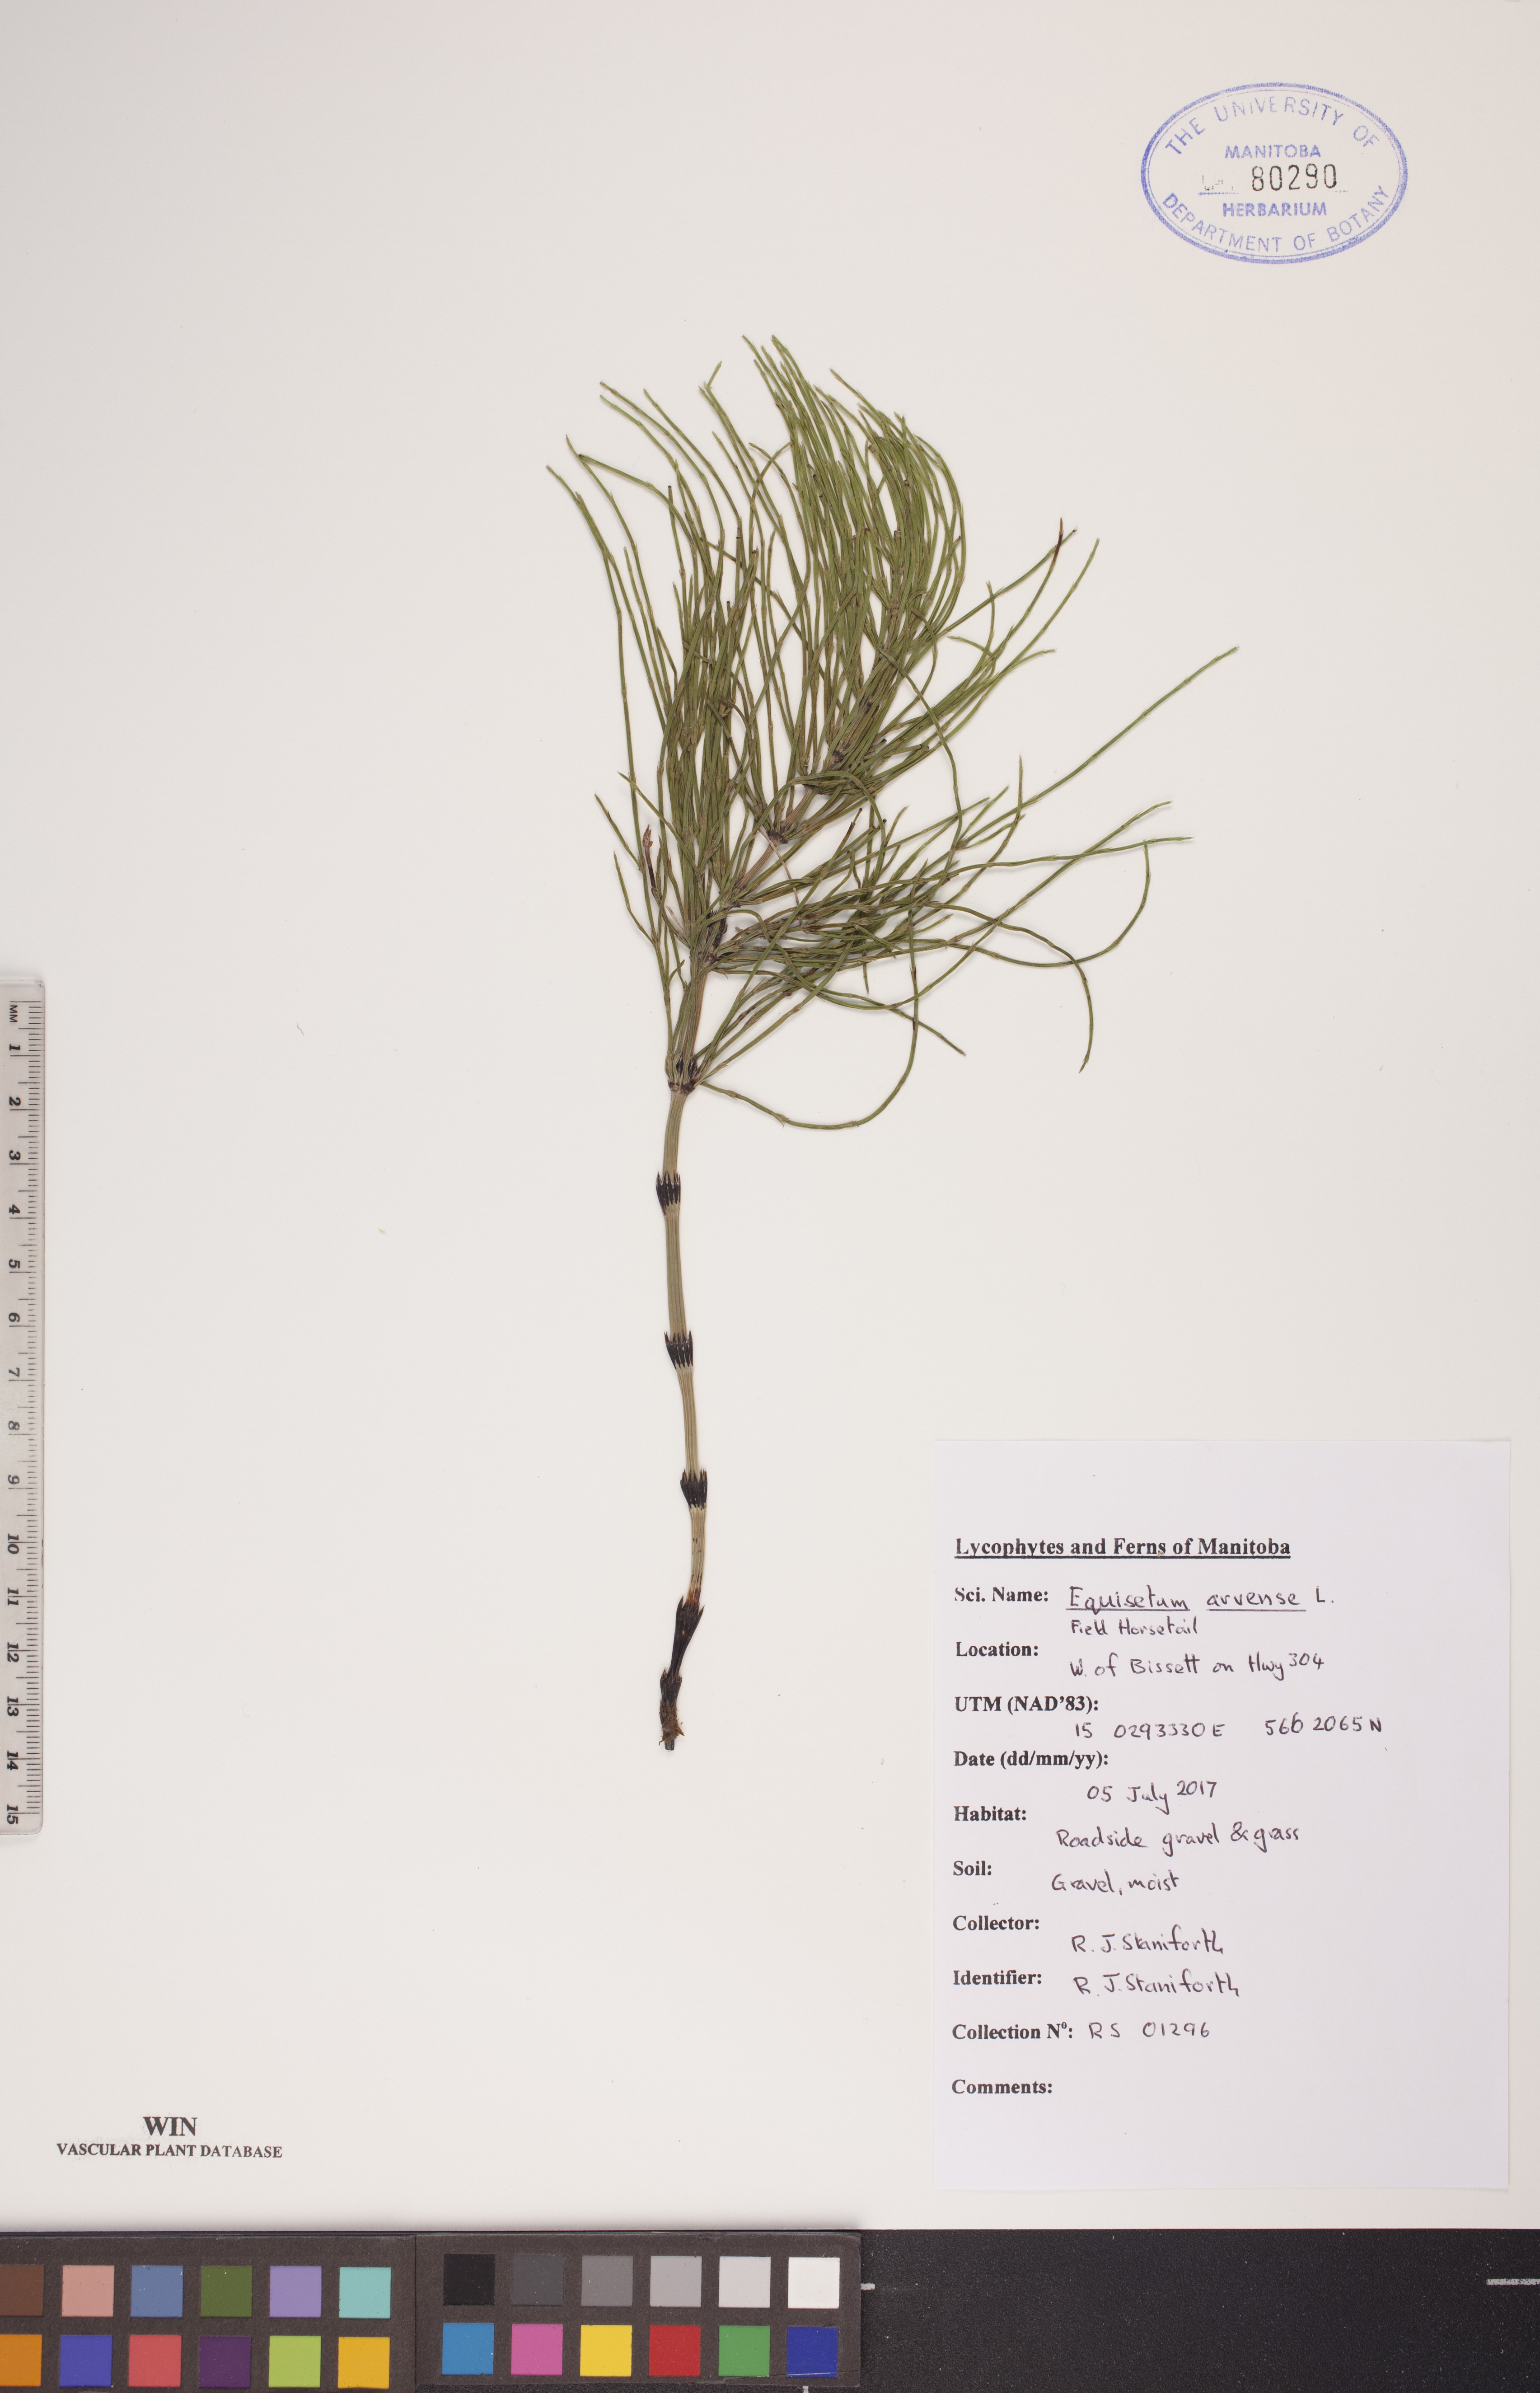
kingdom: Plantae
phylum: Tracheophyta
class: Polypodiopsida
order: Equisetales
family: Equisetaceae
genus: Equisetum
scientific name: Equisetum arvense
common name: Field horsetail
